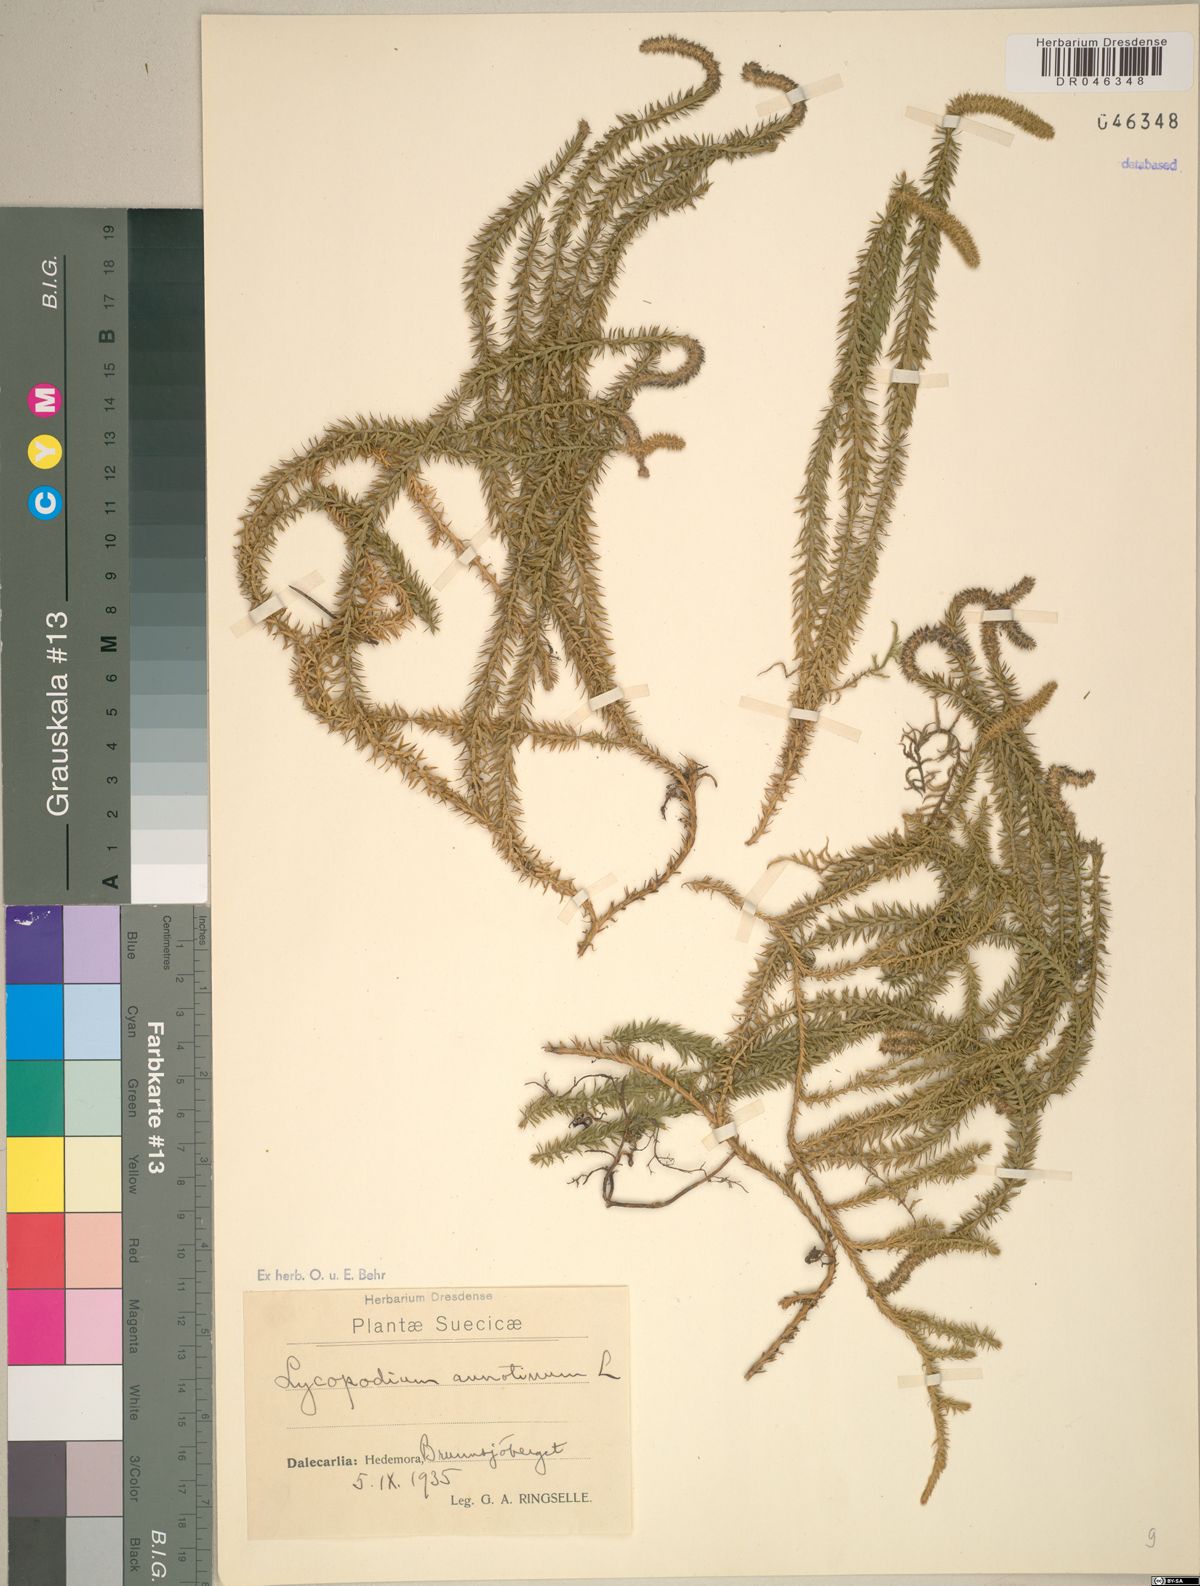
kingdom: Plantae
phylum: Tracheophyta
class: Lycopodiopsida
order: Lycopodiales
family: Lycopodiaceae
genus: Spinulum
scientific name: Spinulum annotinum
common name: Interrupted club-moss
